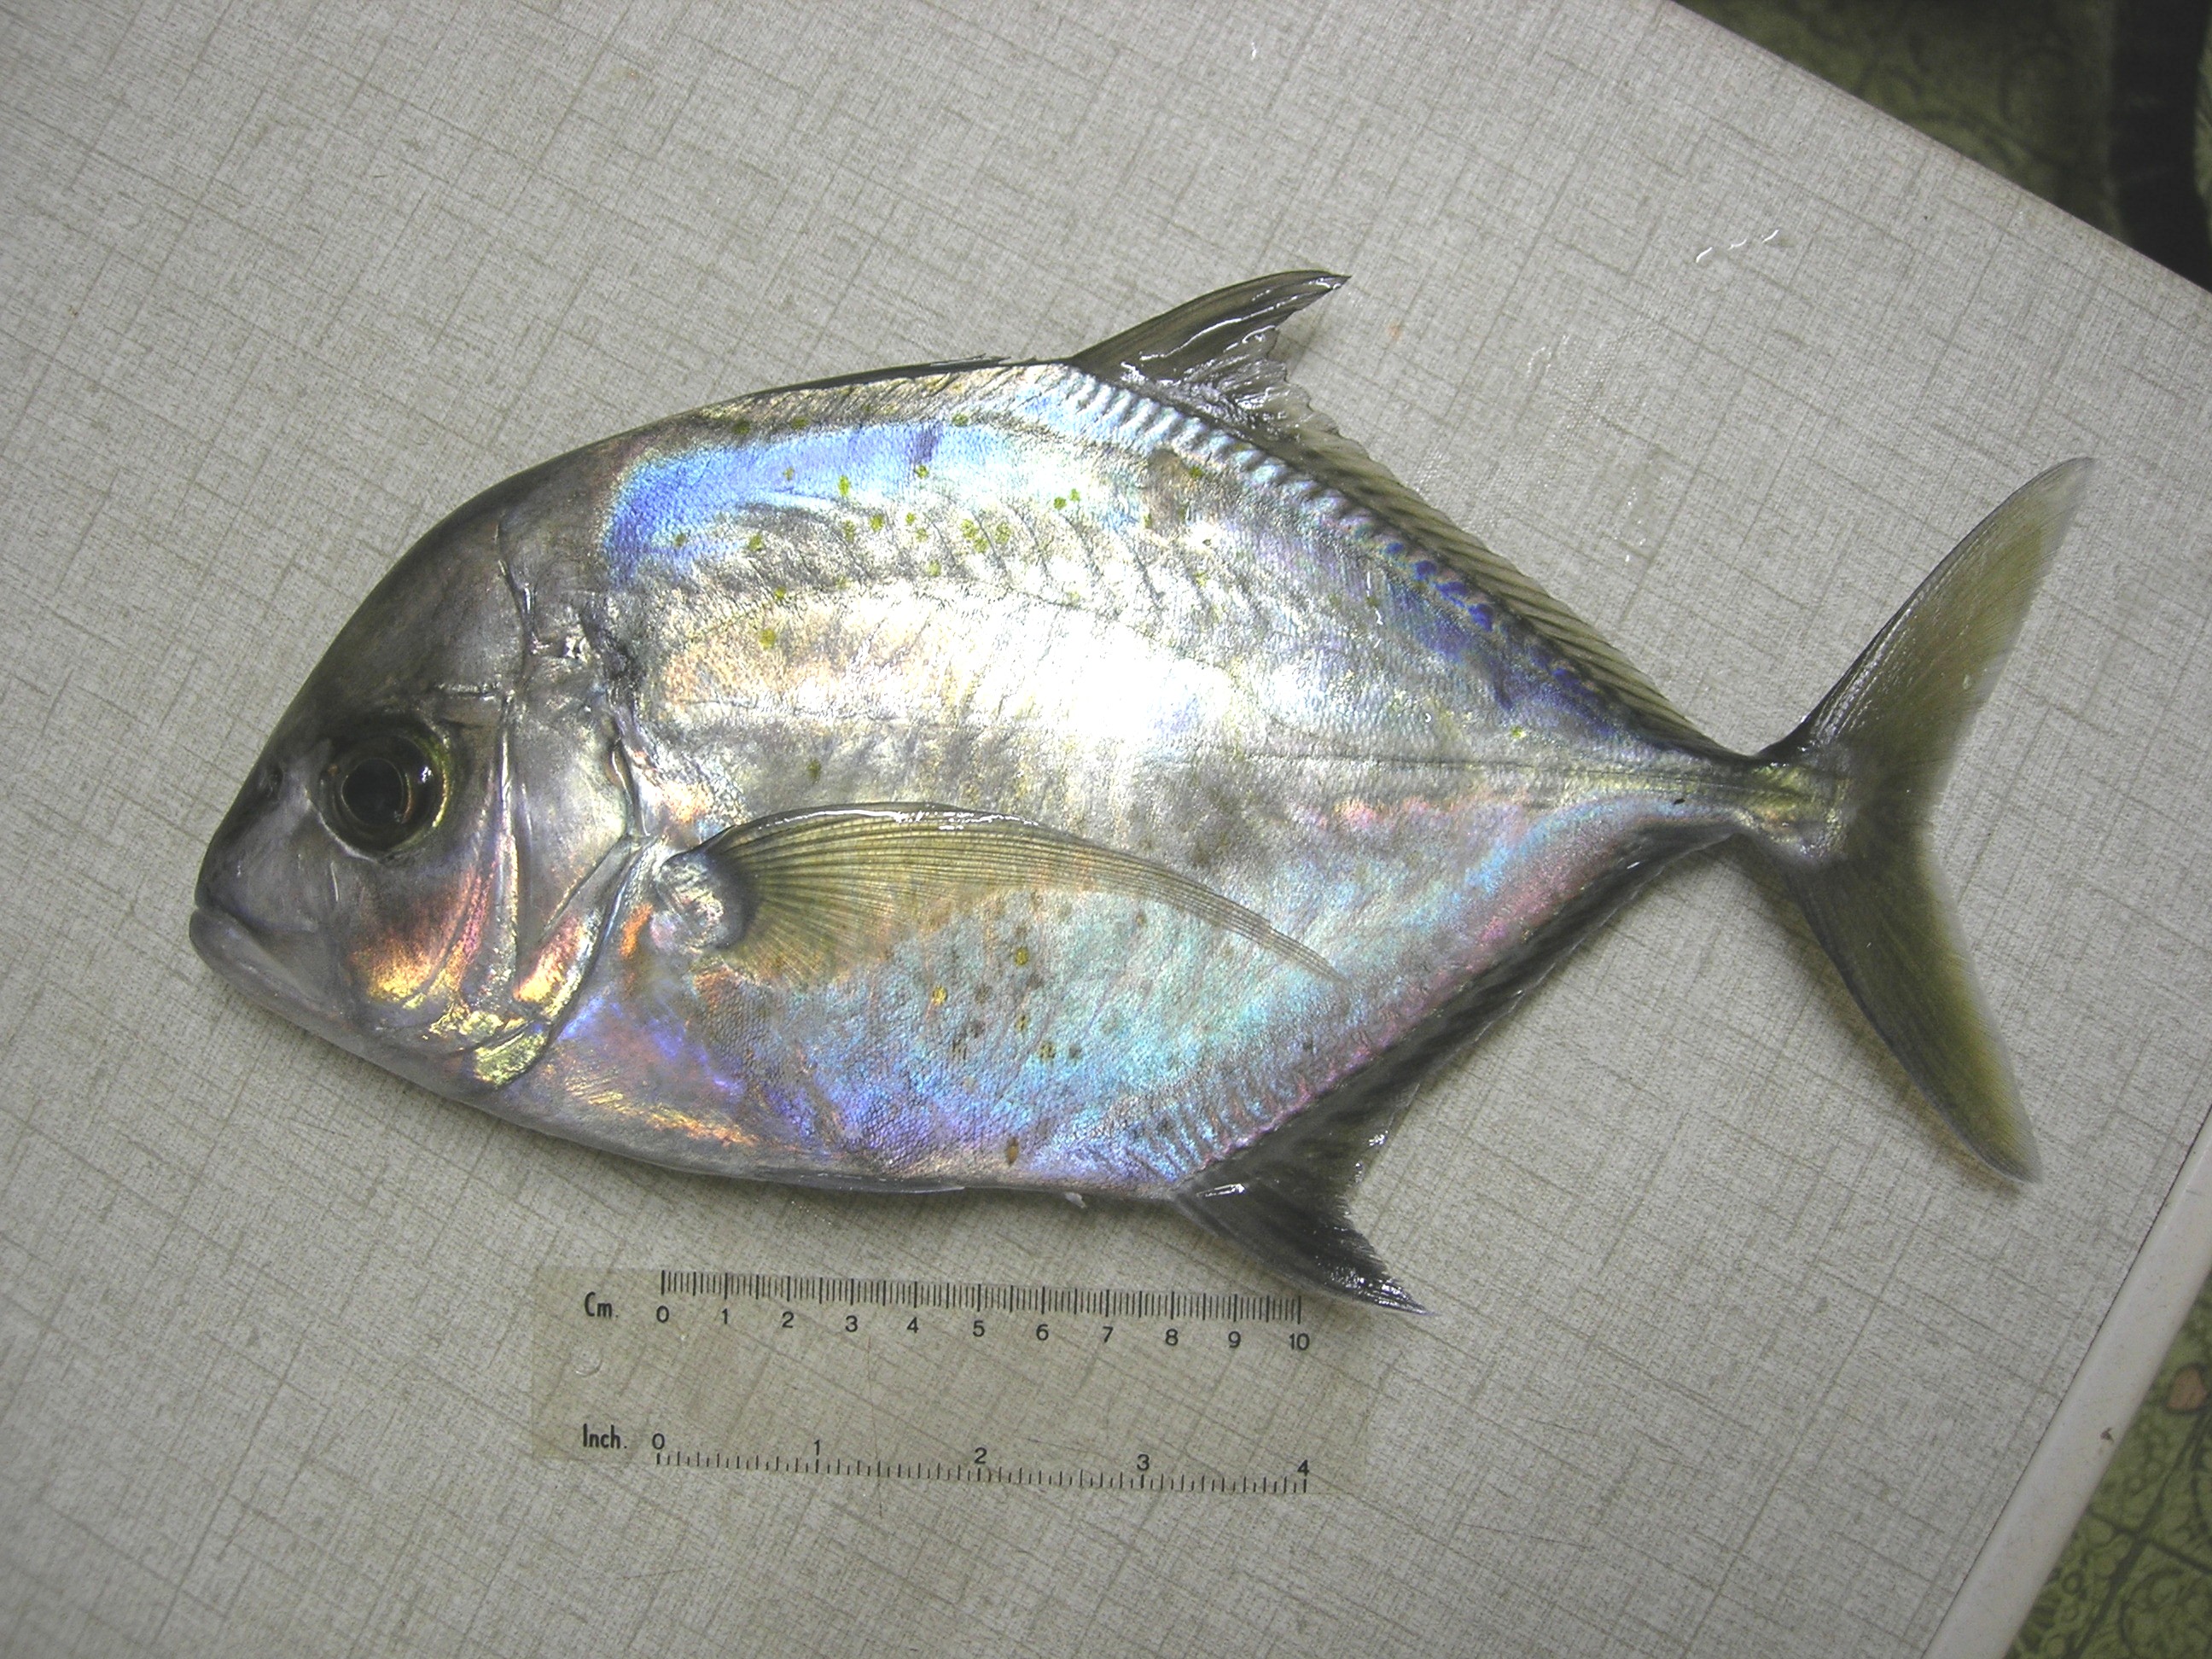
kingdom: Animalia
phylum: Chordata
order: Perciformes
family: Carangidae
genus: Carangoides
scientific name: Carangoides coeruleopinnatus
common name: Coastal trevally
